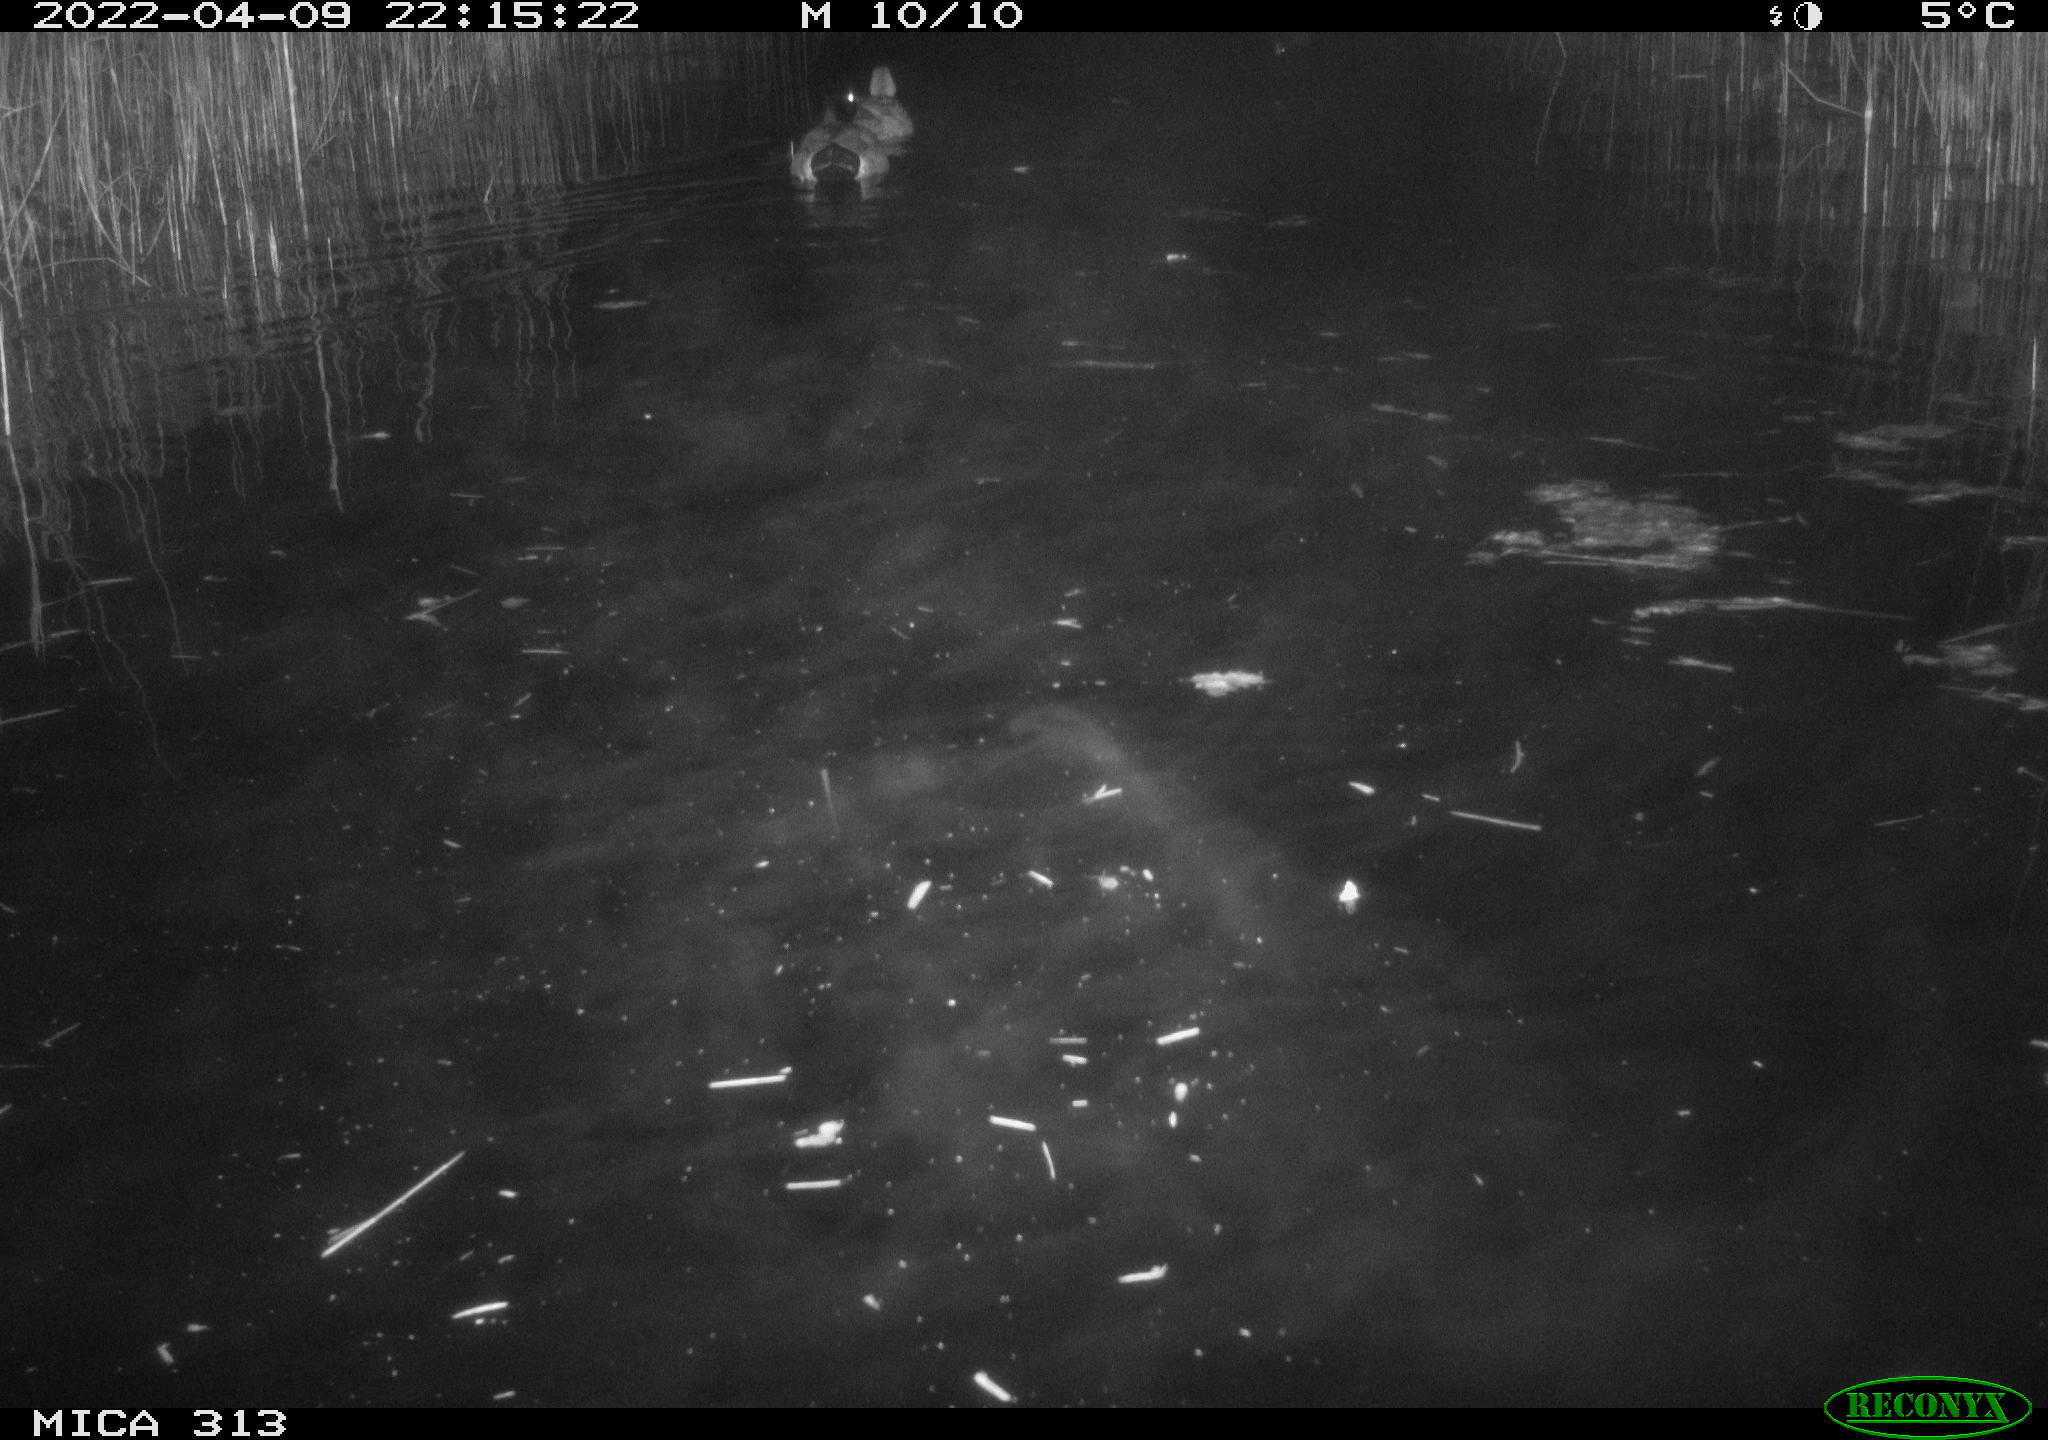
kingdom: Animalia
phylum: Chordata
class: Aves
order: Anseriformes
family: Anatidae
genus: Anas
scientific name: Anas platyrhynchos
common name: Mallard
